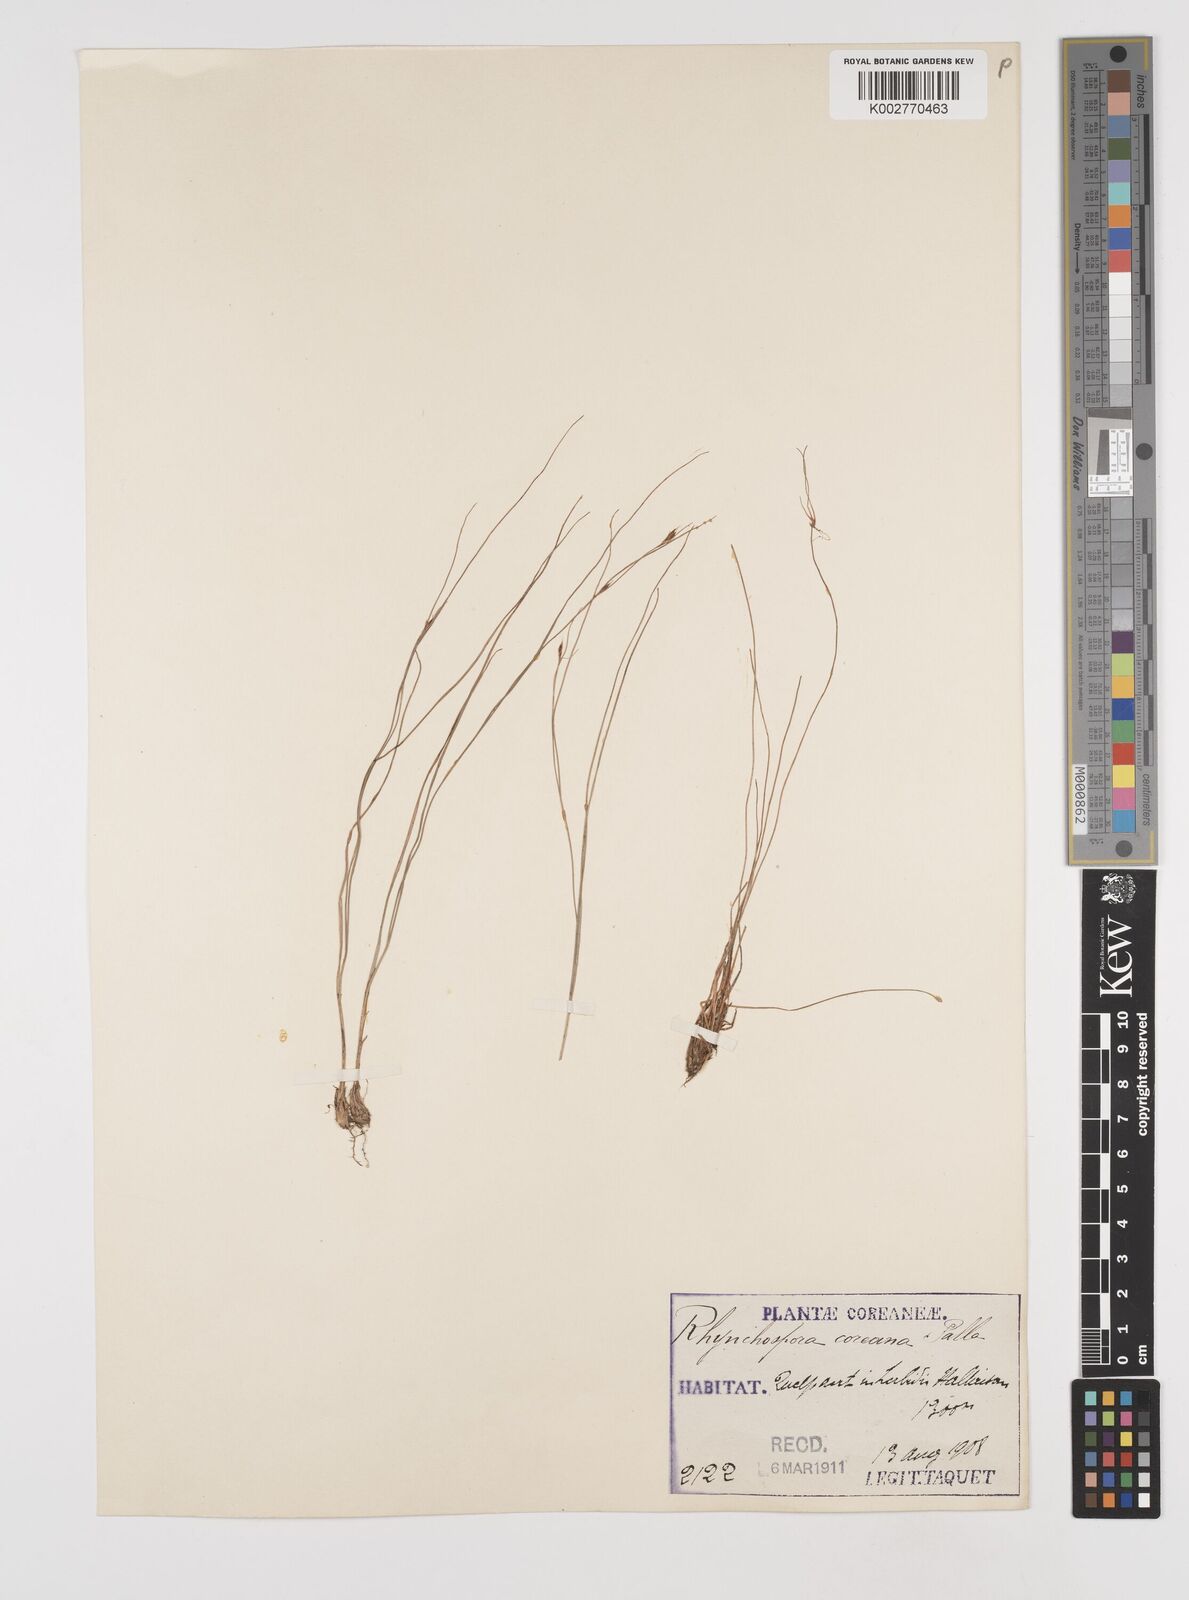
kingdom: Plantae
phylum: Tracheophyta
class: Liliopsida
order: Poales
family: Cyperaceae
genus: Rhynchospora
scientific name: Rhynchospora fujiiana
